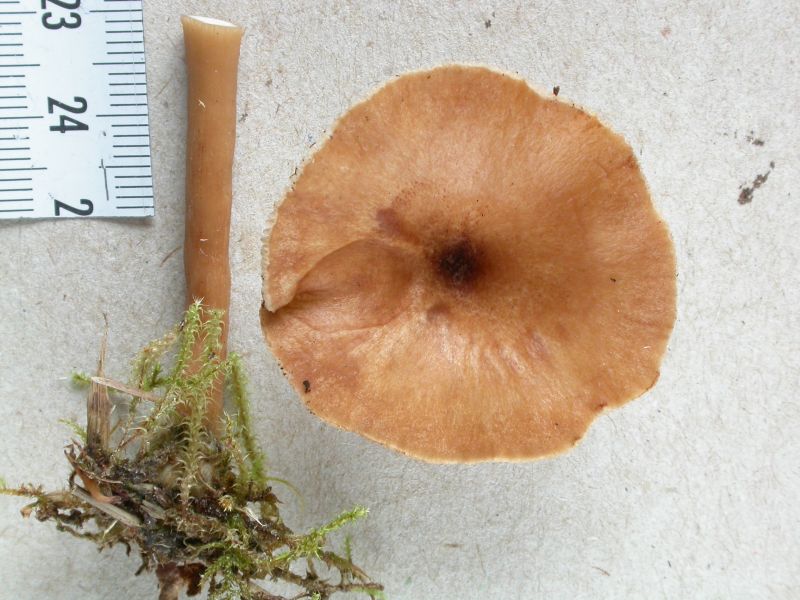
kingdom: Fungi
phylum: Basidiomycota
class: Agaricomycetes
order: Agaricales
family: Tricholomataceae
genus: Infundibulicybe
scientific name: Infundibulicybe squamulosa
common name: småskællet tragthat
